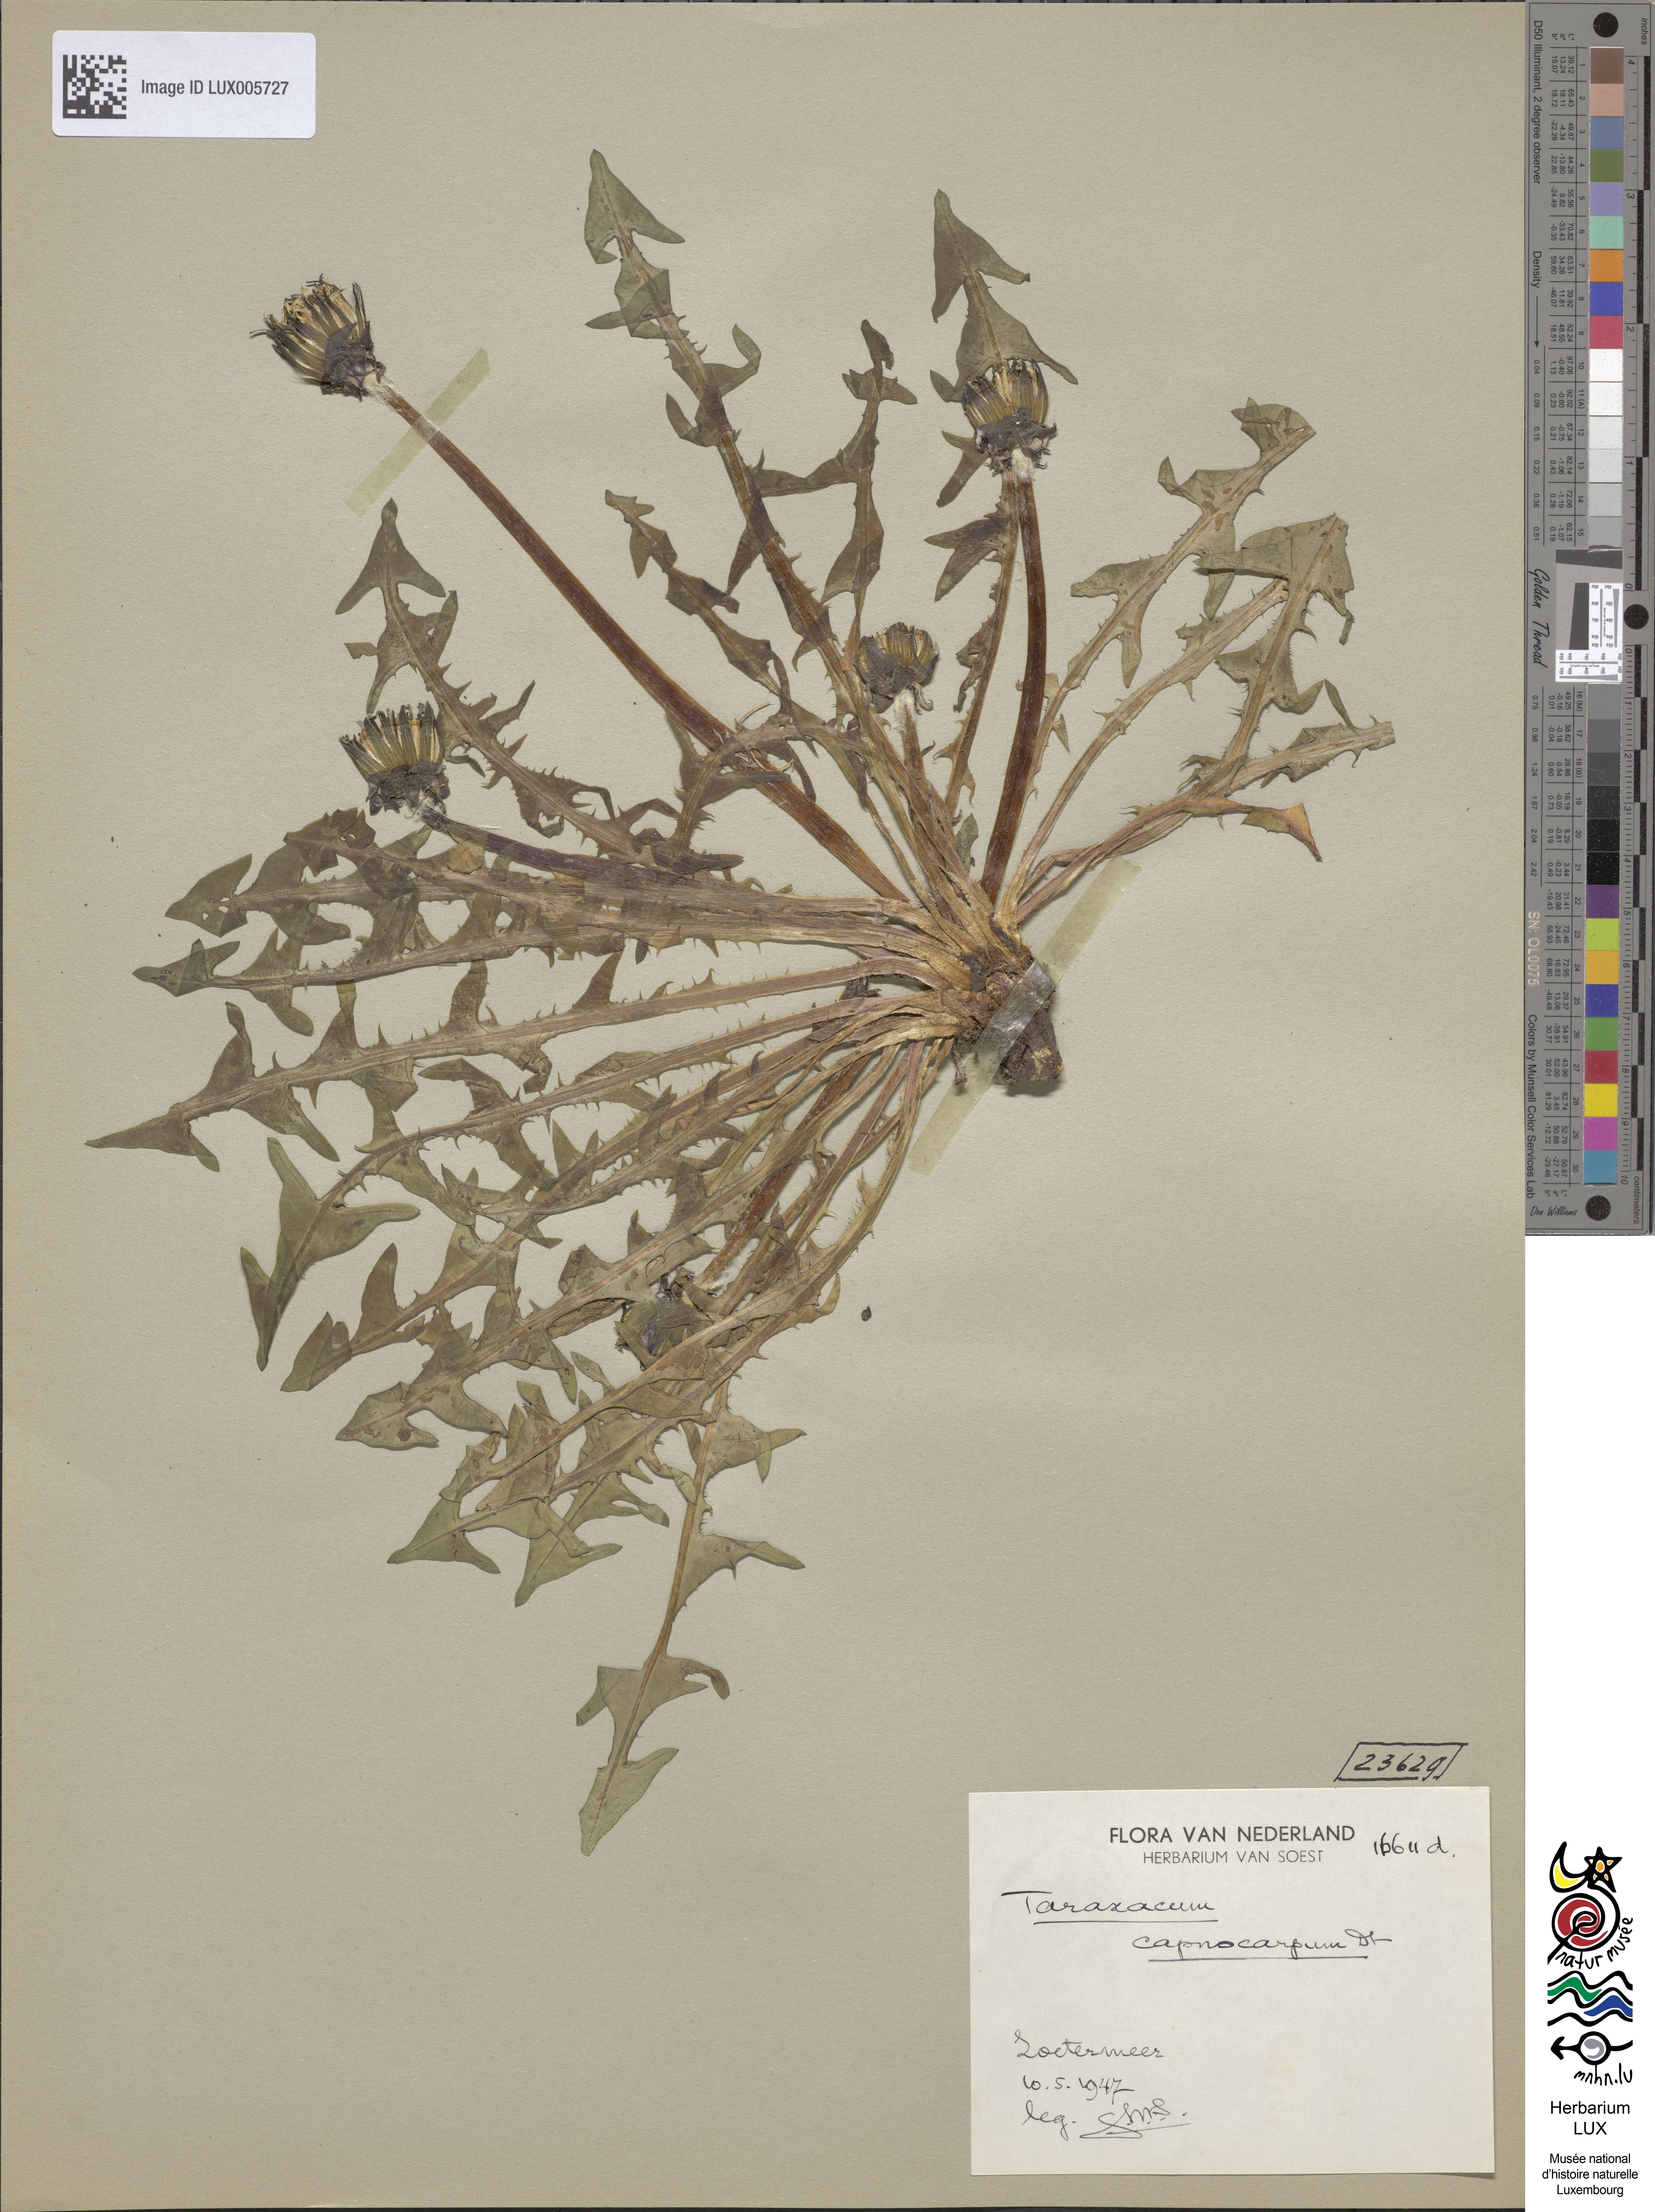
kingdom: Plantae
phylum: Tracheophyta
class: Magnoliopsida
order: Asterales
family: Asteraceae
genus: Taraxacum
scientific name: Taraxacum capnocarpum
